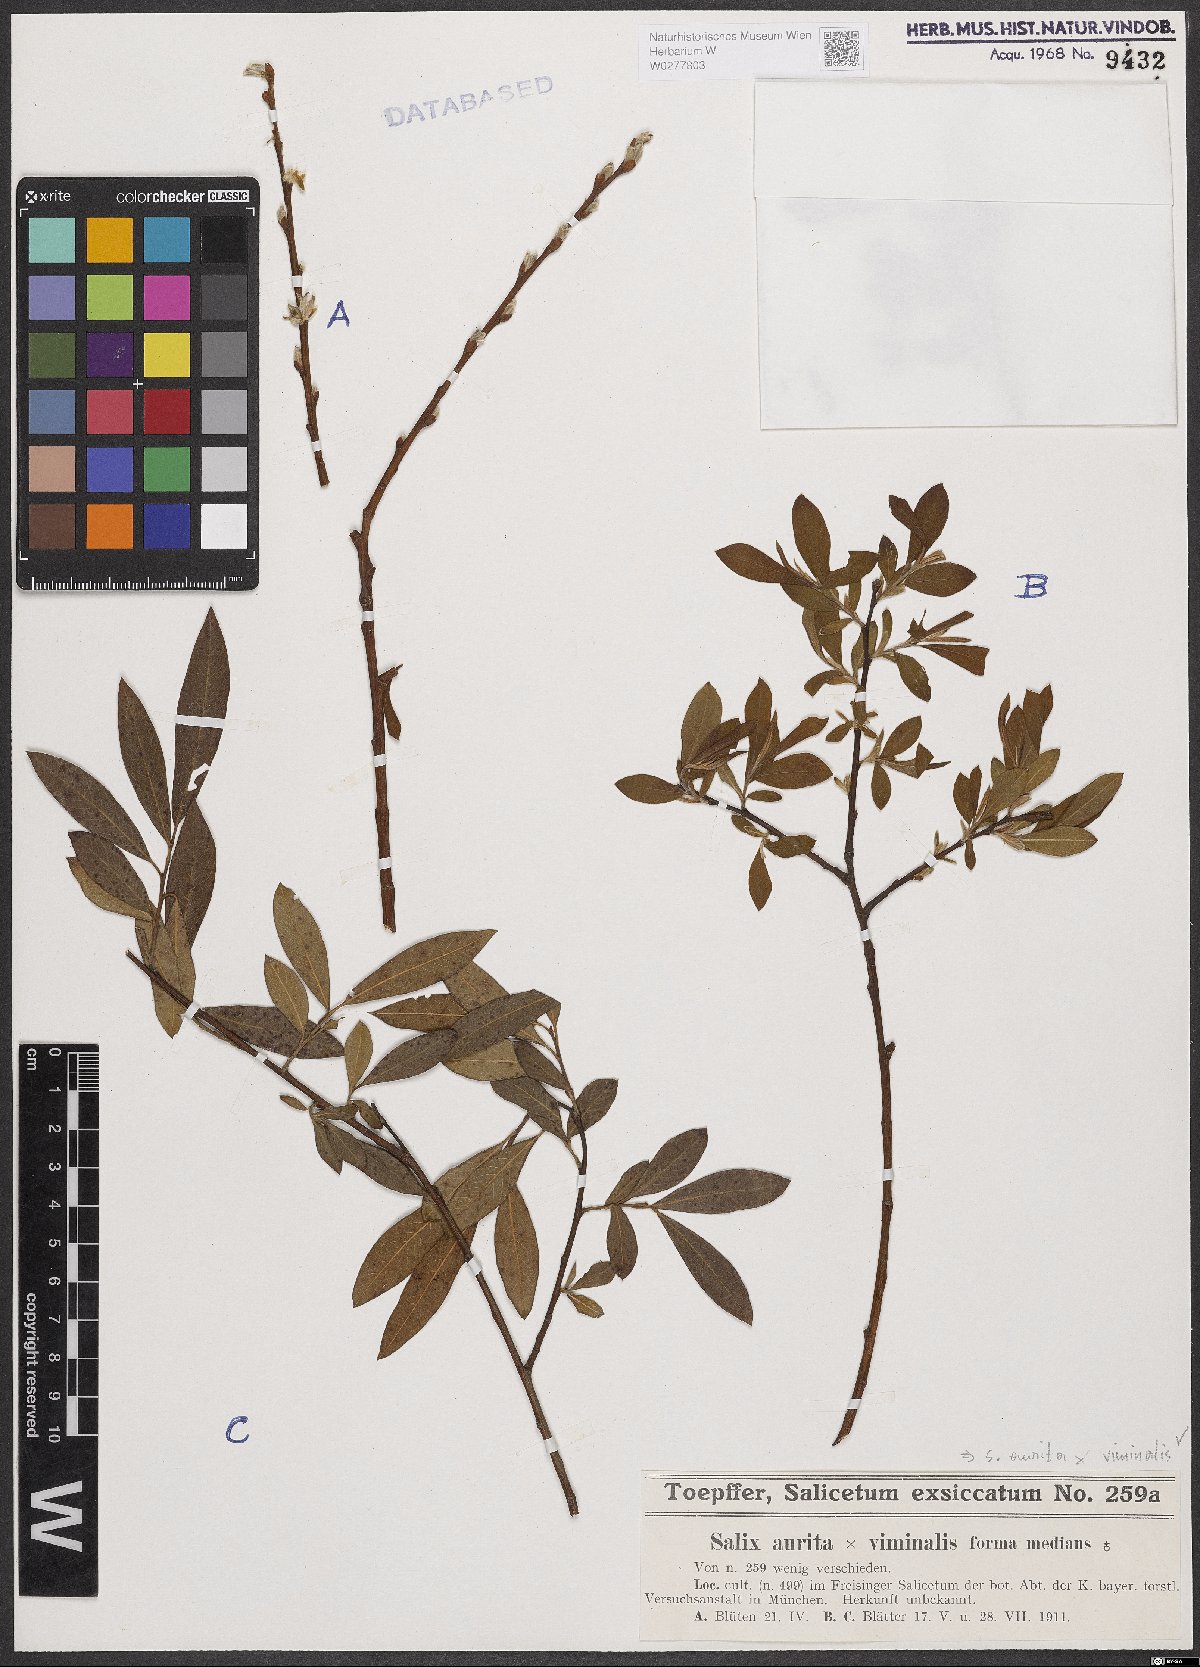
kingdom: Plantae
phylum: Tracheophyta
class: Magnoliopsida
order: Malpighiales
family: Salicaceae
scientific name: Salicaceae
